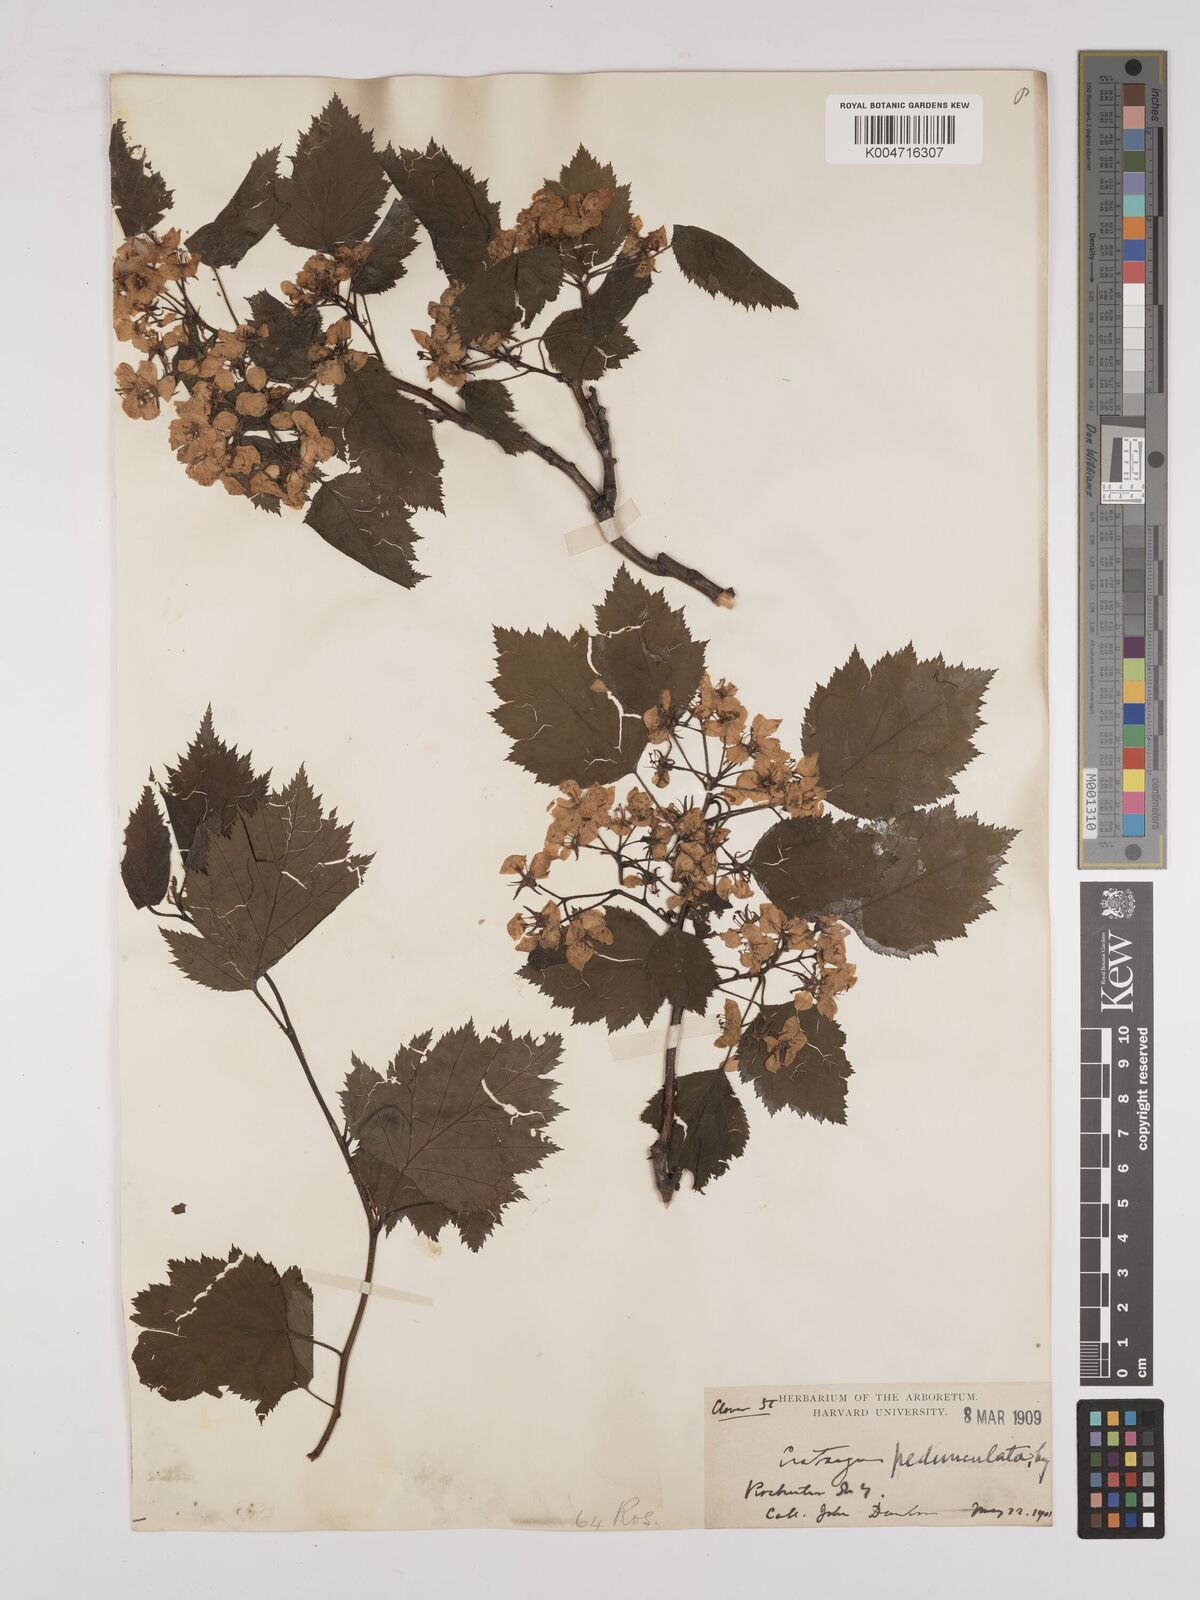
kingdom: Plantae
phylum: Tracheophyta
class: Magnoliopsida
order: Rosales
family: Rosaceae
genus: Crataegus
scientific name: Crataegus
